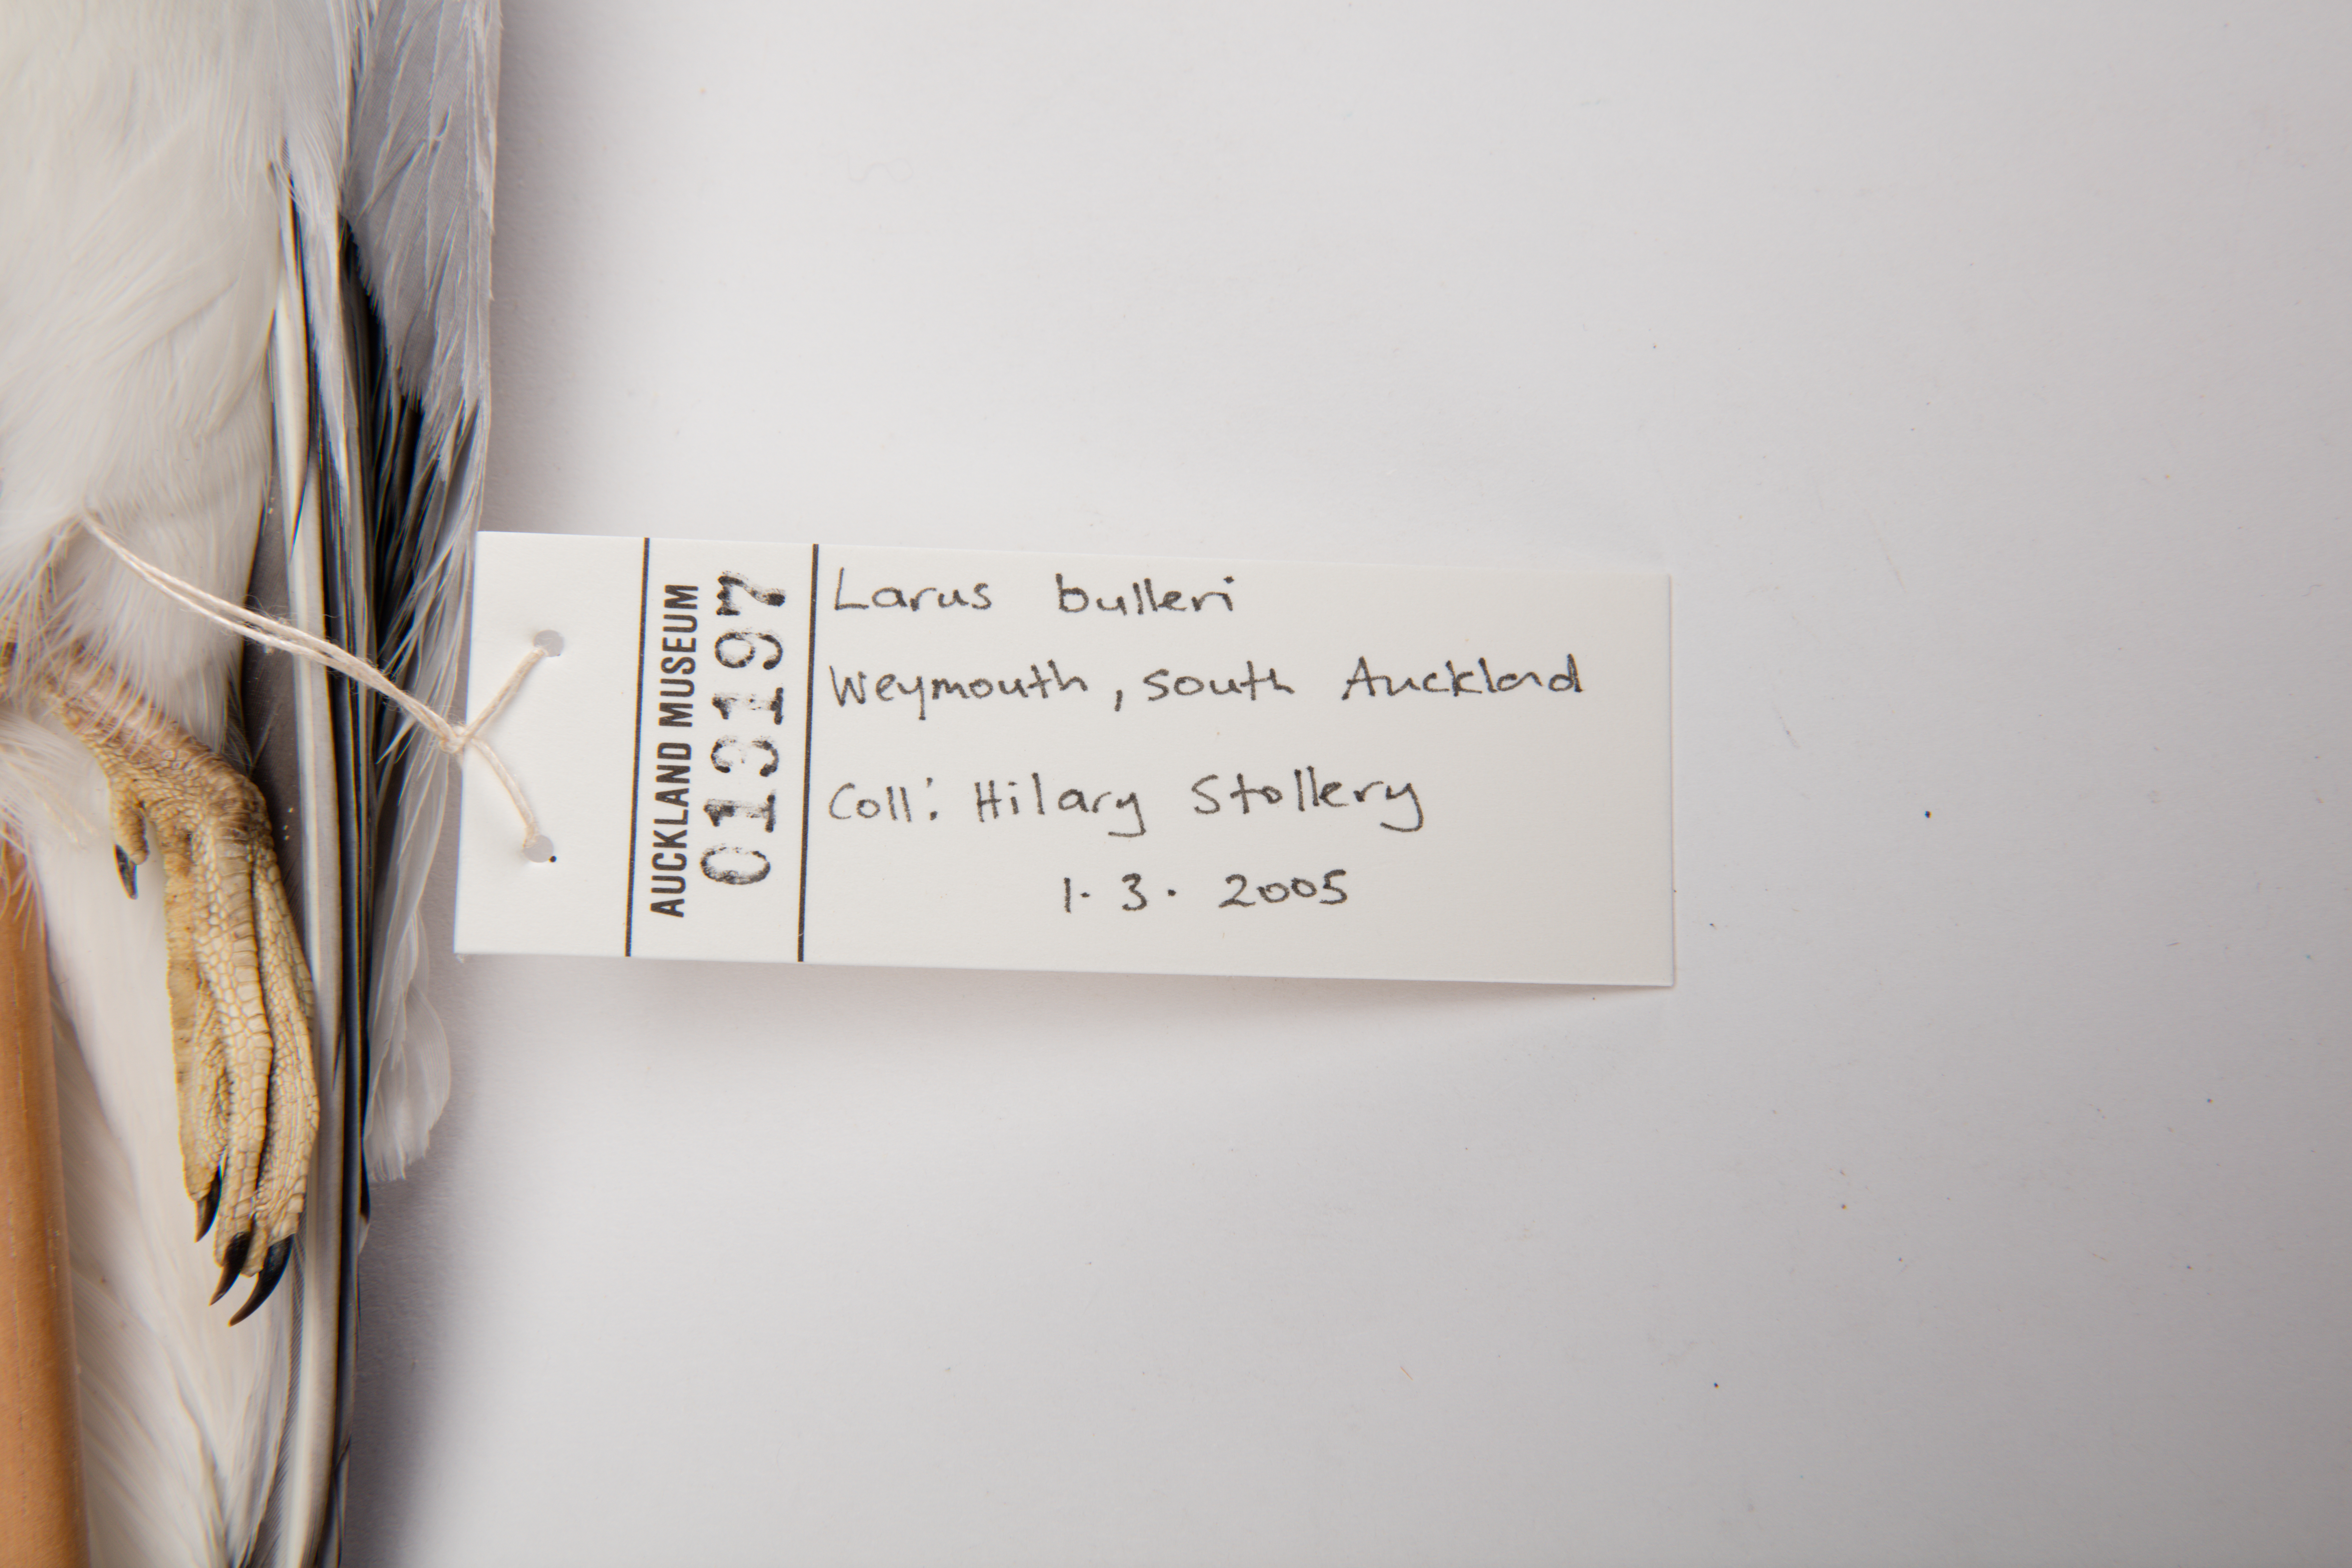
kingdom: Animalia
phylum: Chordata
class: Aves
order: Charadriiformes
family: Laridae
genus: Chroicocephalus
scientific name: Chroicocephalus bulleri
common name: Black-billed gull
